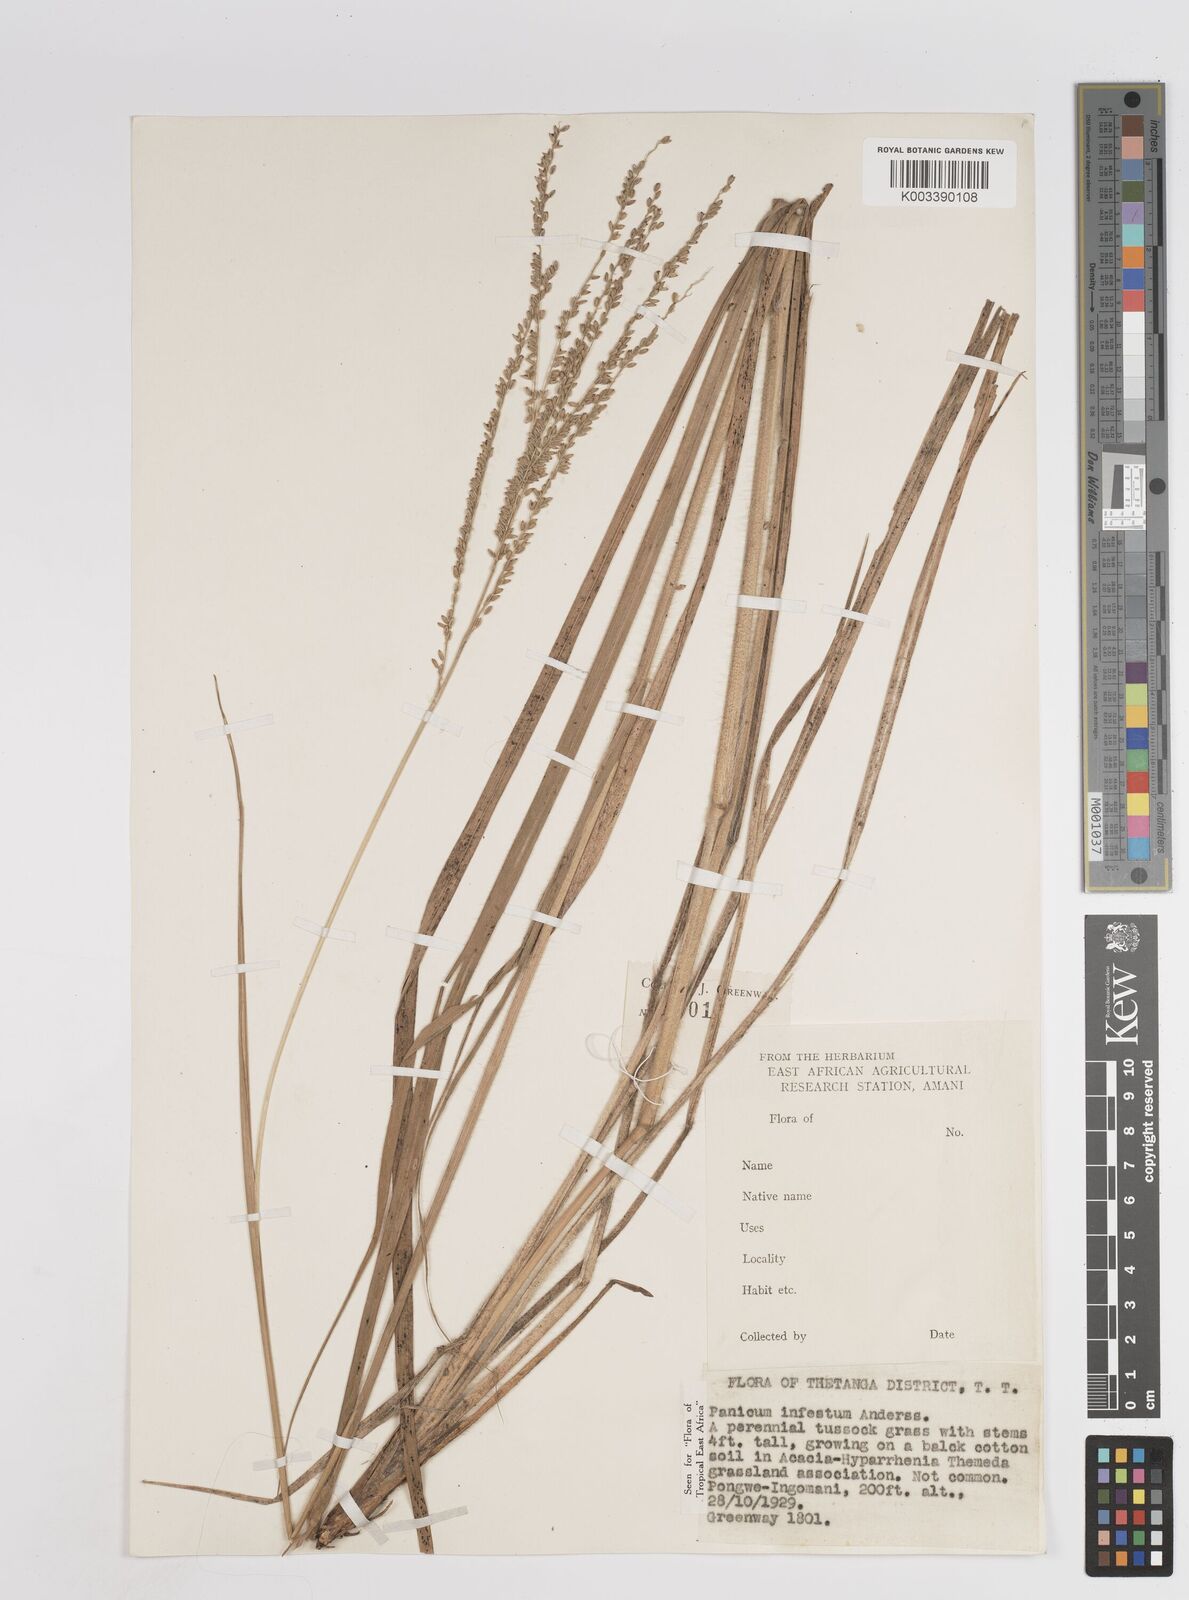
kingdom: Plantae
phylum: Tracheophyta
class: Liliopsida
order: Poales
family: Poaceae
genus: Megathyrsus
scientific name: Megathyrsus infestus
